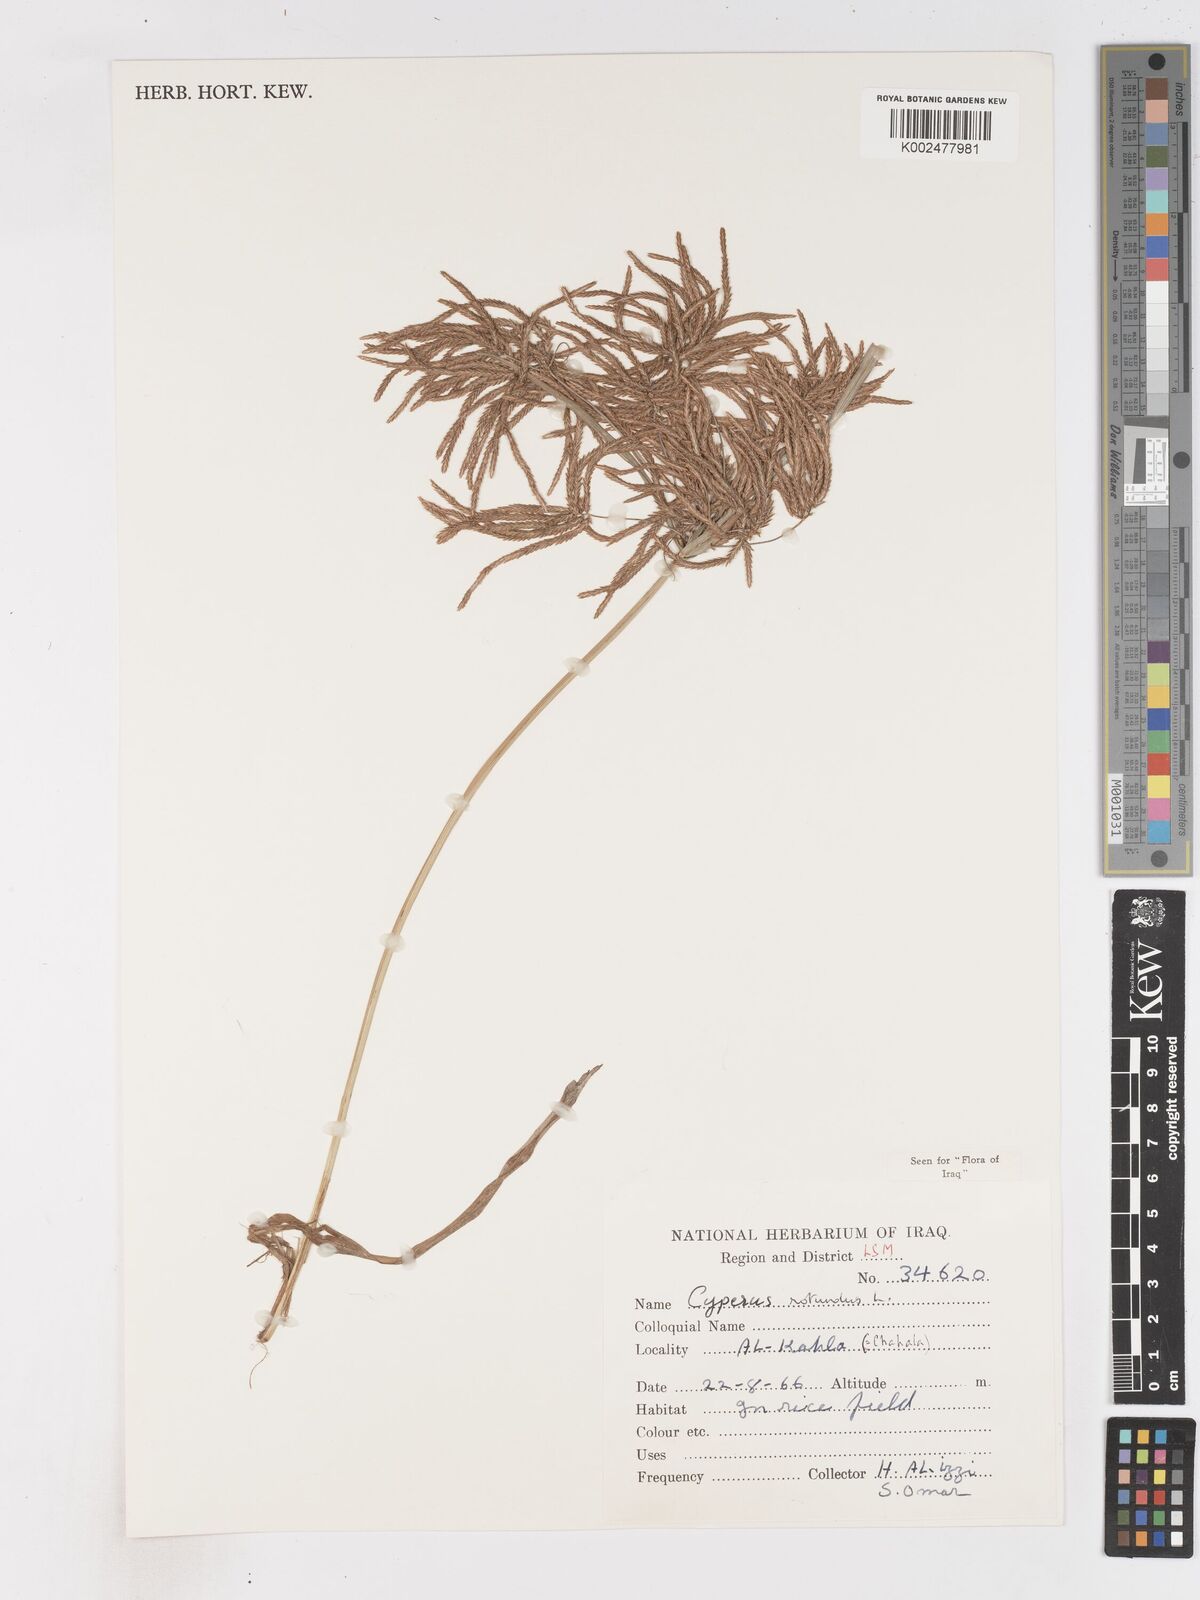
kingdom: Plantae
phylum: Tracheophyta
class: Liliopsida
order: Poales
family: Cyperaceae
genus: Cyperus
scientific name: Cyperus rotundus
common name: Nutgrass
